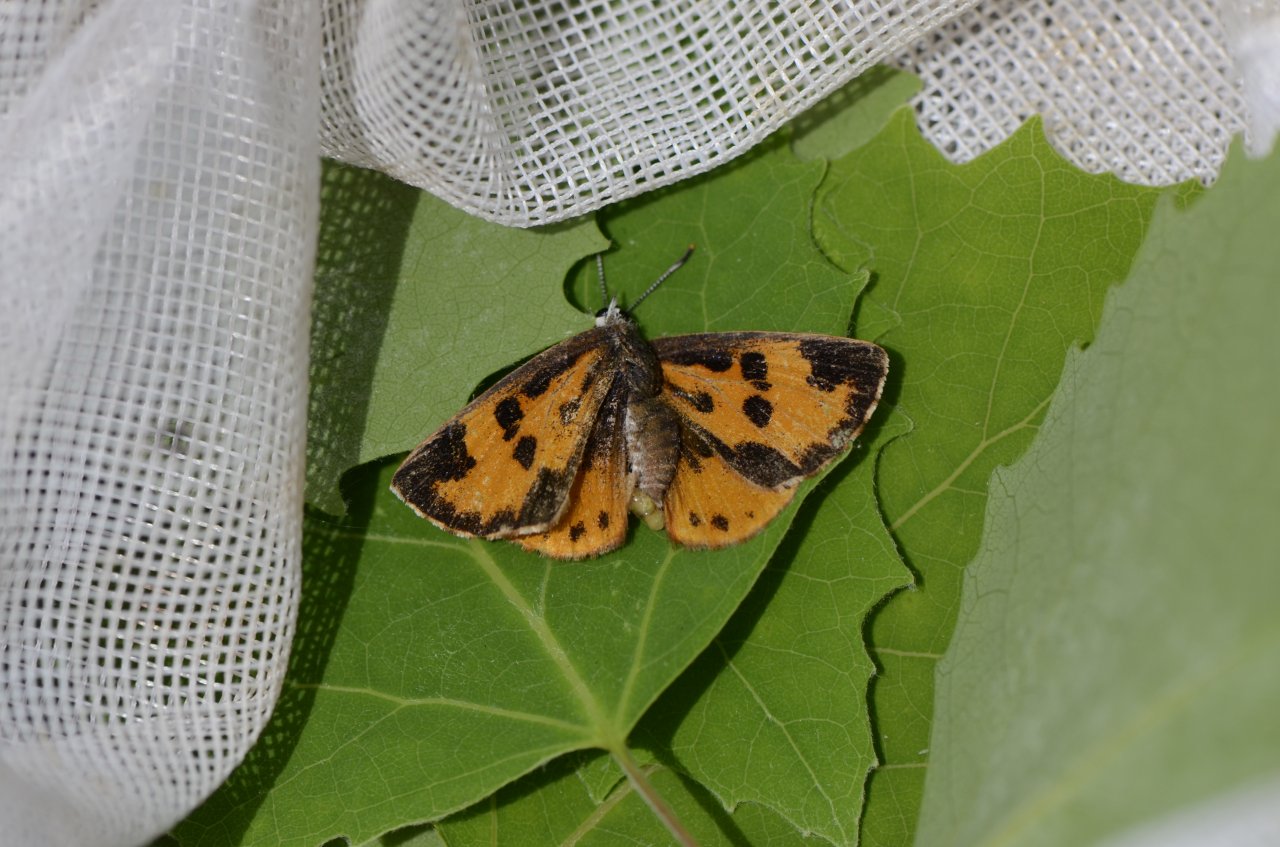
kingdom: Animalia
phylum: Arthropoda
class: Insecta
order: Lepidoptera
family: Lycaenidae
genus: Feniseca
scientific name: Feniseca tarquinius
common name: Harvester
